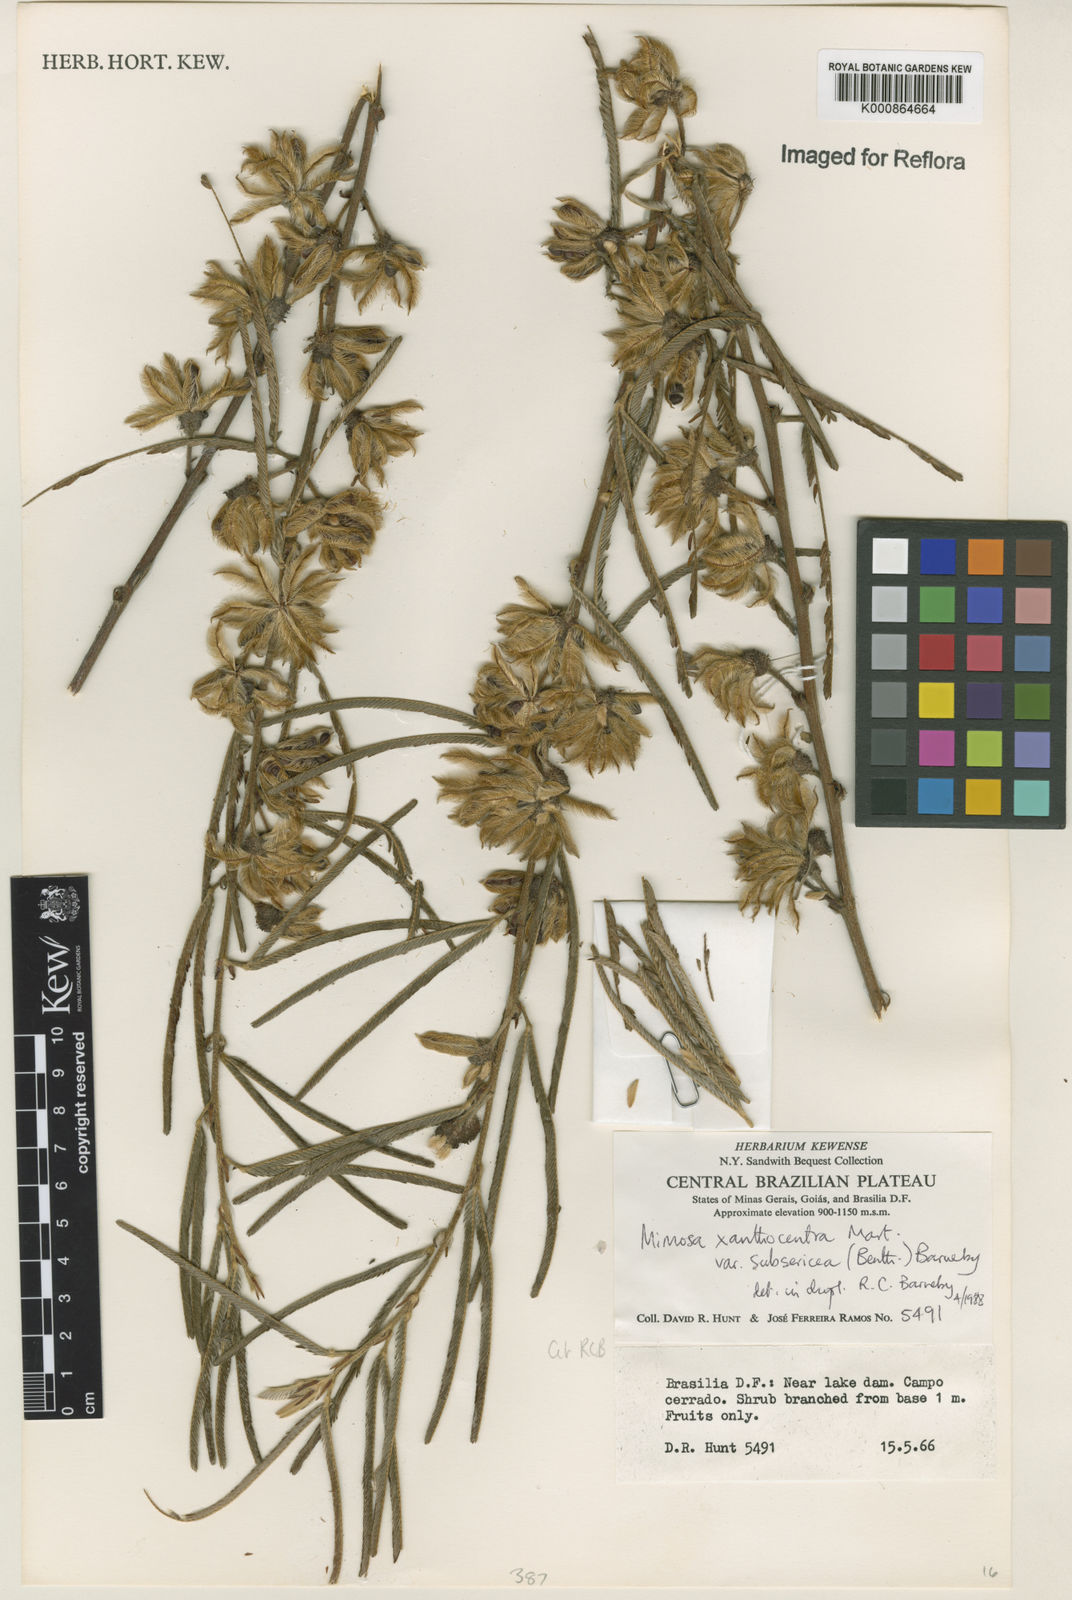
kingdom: Plantae
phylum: Tracheophyta
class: Magnoliopsida
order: Fabales
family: Fabaceae
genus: Mimosa
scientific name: Mimosa xanthocentra
